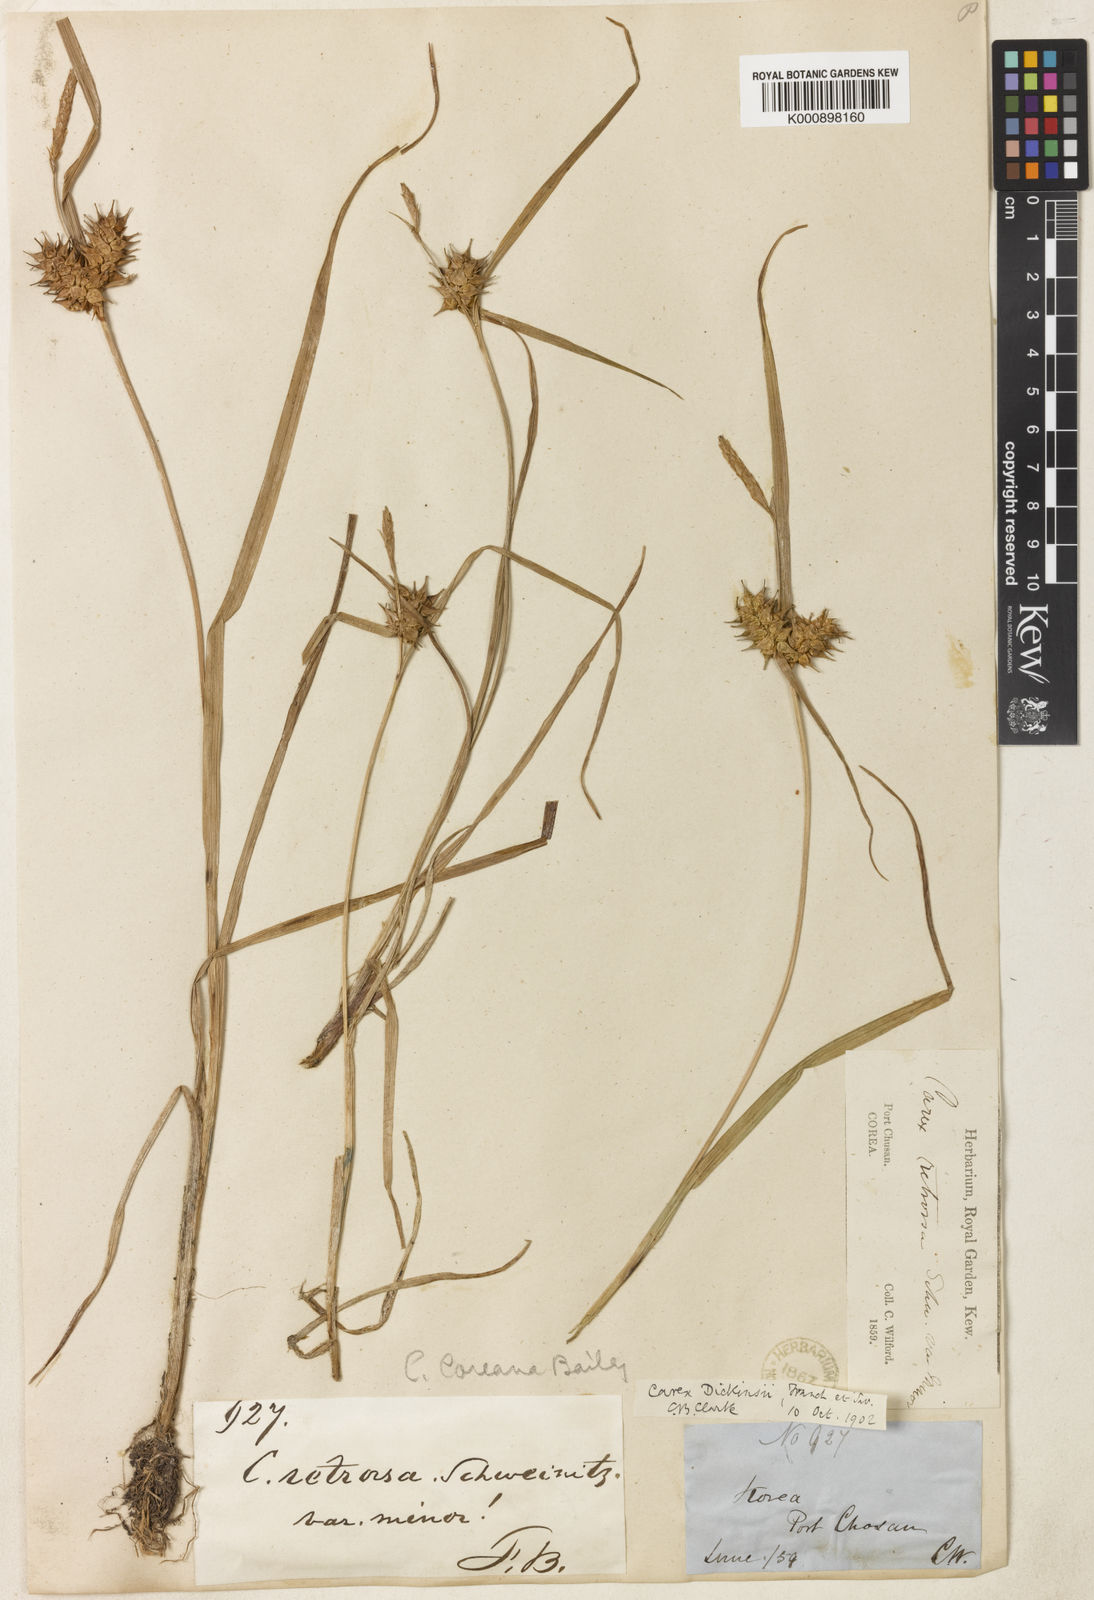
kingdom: Plantae
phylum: Tracheophyta
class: Liliopsida
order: Poales
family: Cyperaceae
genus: Carex
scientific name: Carex dickinsii
